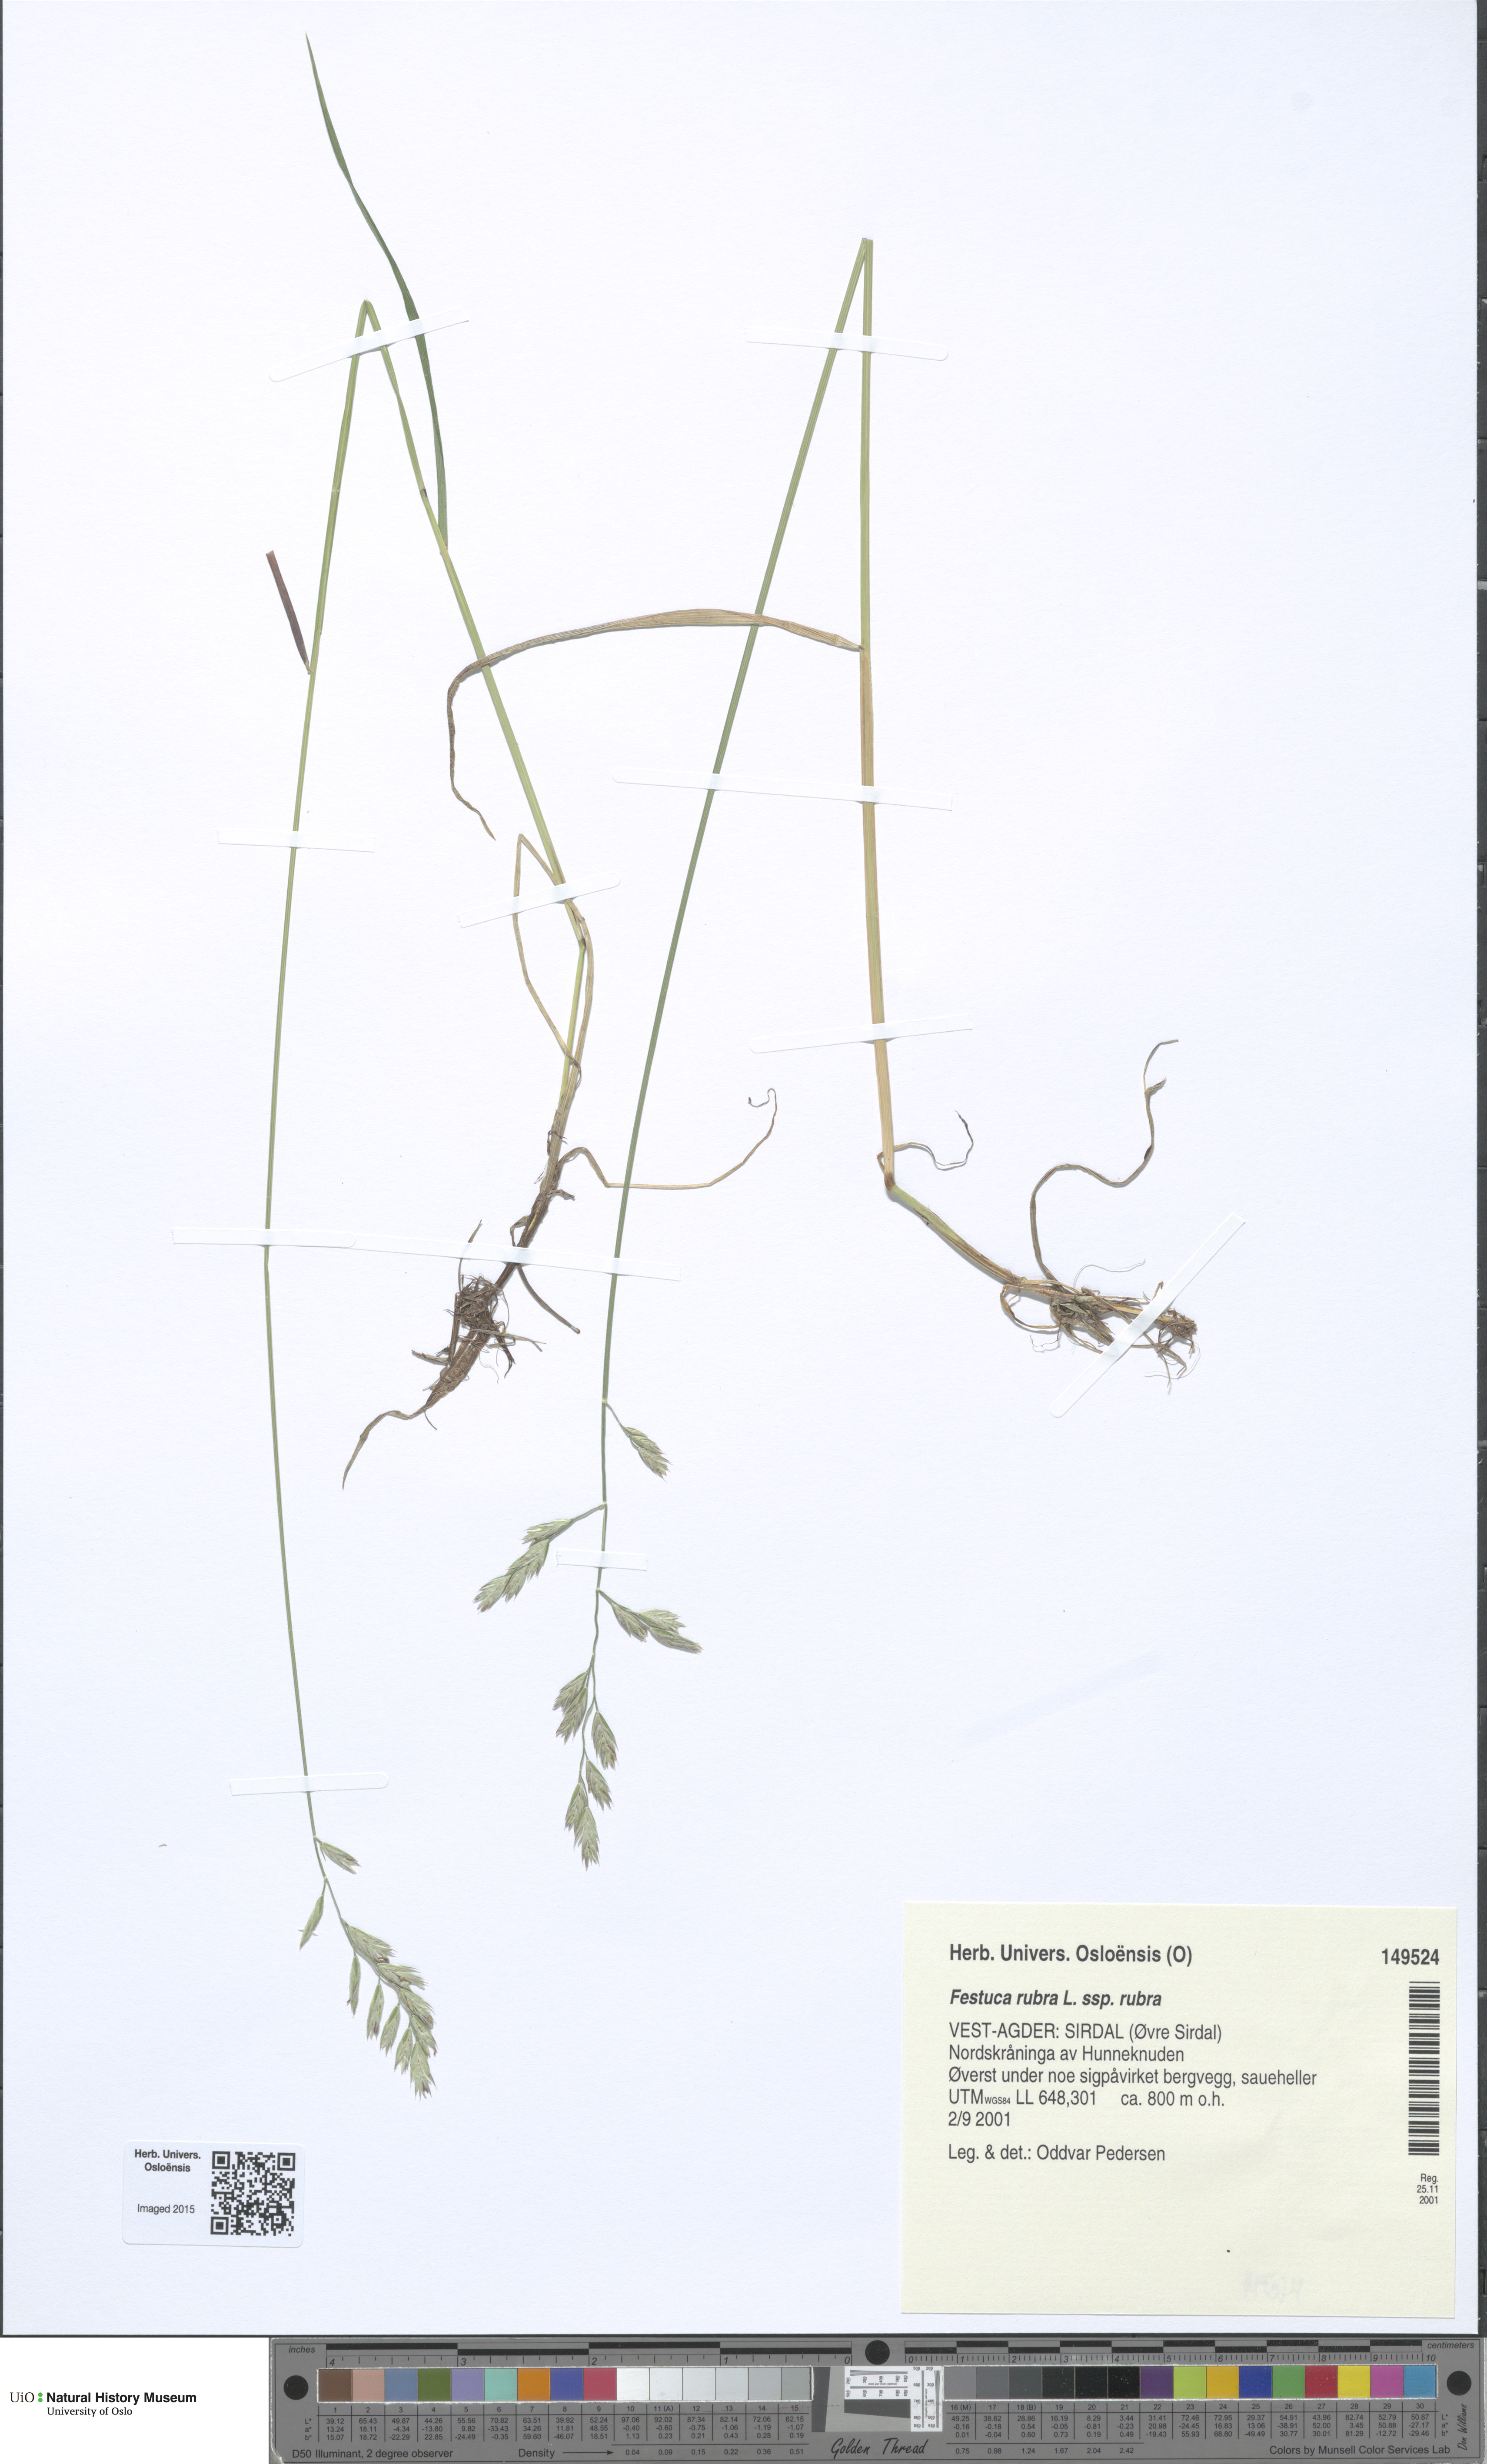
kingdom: Plantae
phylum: Tracheophyta
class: Liliopsida
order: Poales
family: Poaceae
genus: Festuca
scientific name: Festuca rubra
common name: Red fescue
